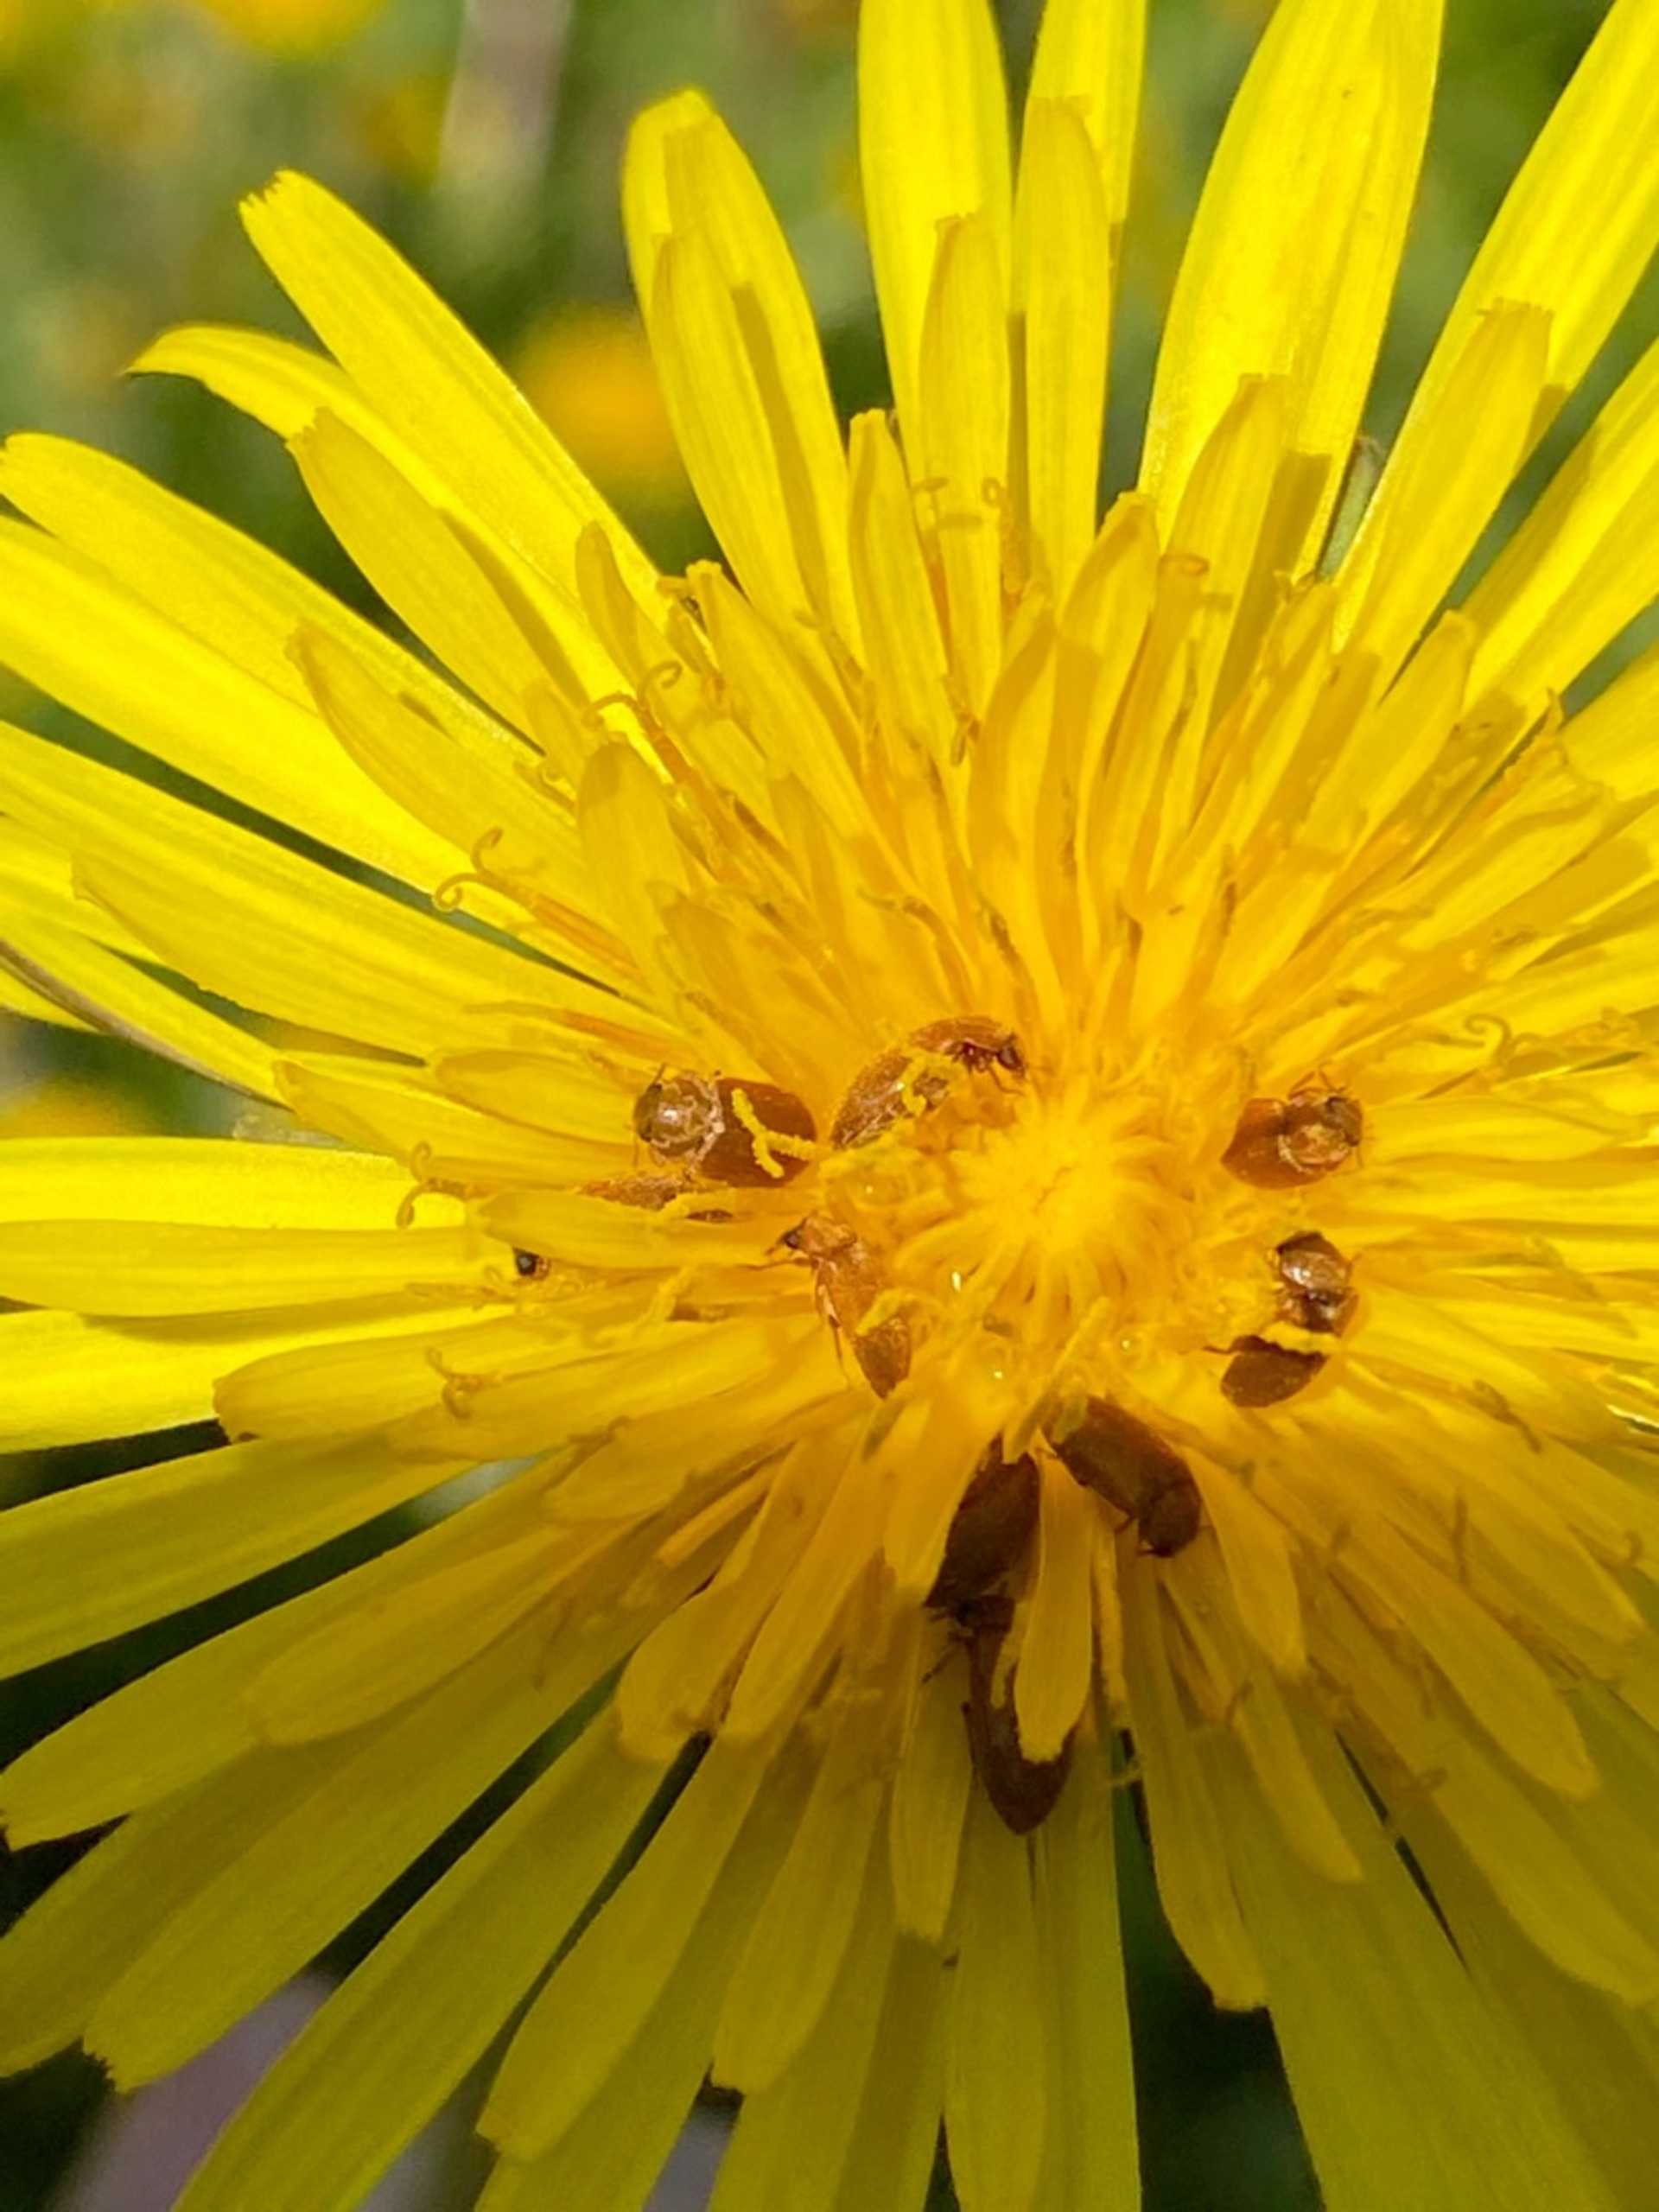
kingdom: Animalia
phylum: Arthropoda
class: Insecta
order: Coleoptera
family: Byturidae
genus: Byturus
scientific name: Byturus tomentosus
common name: Hindbærbille
